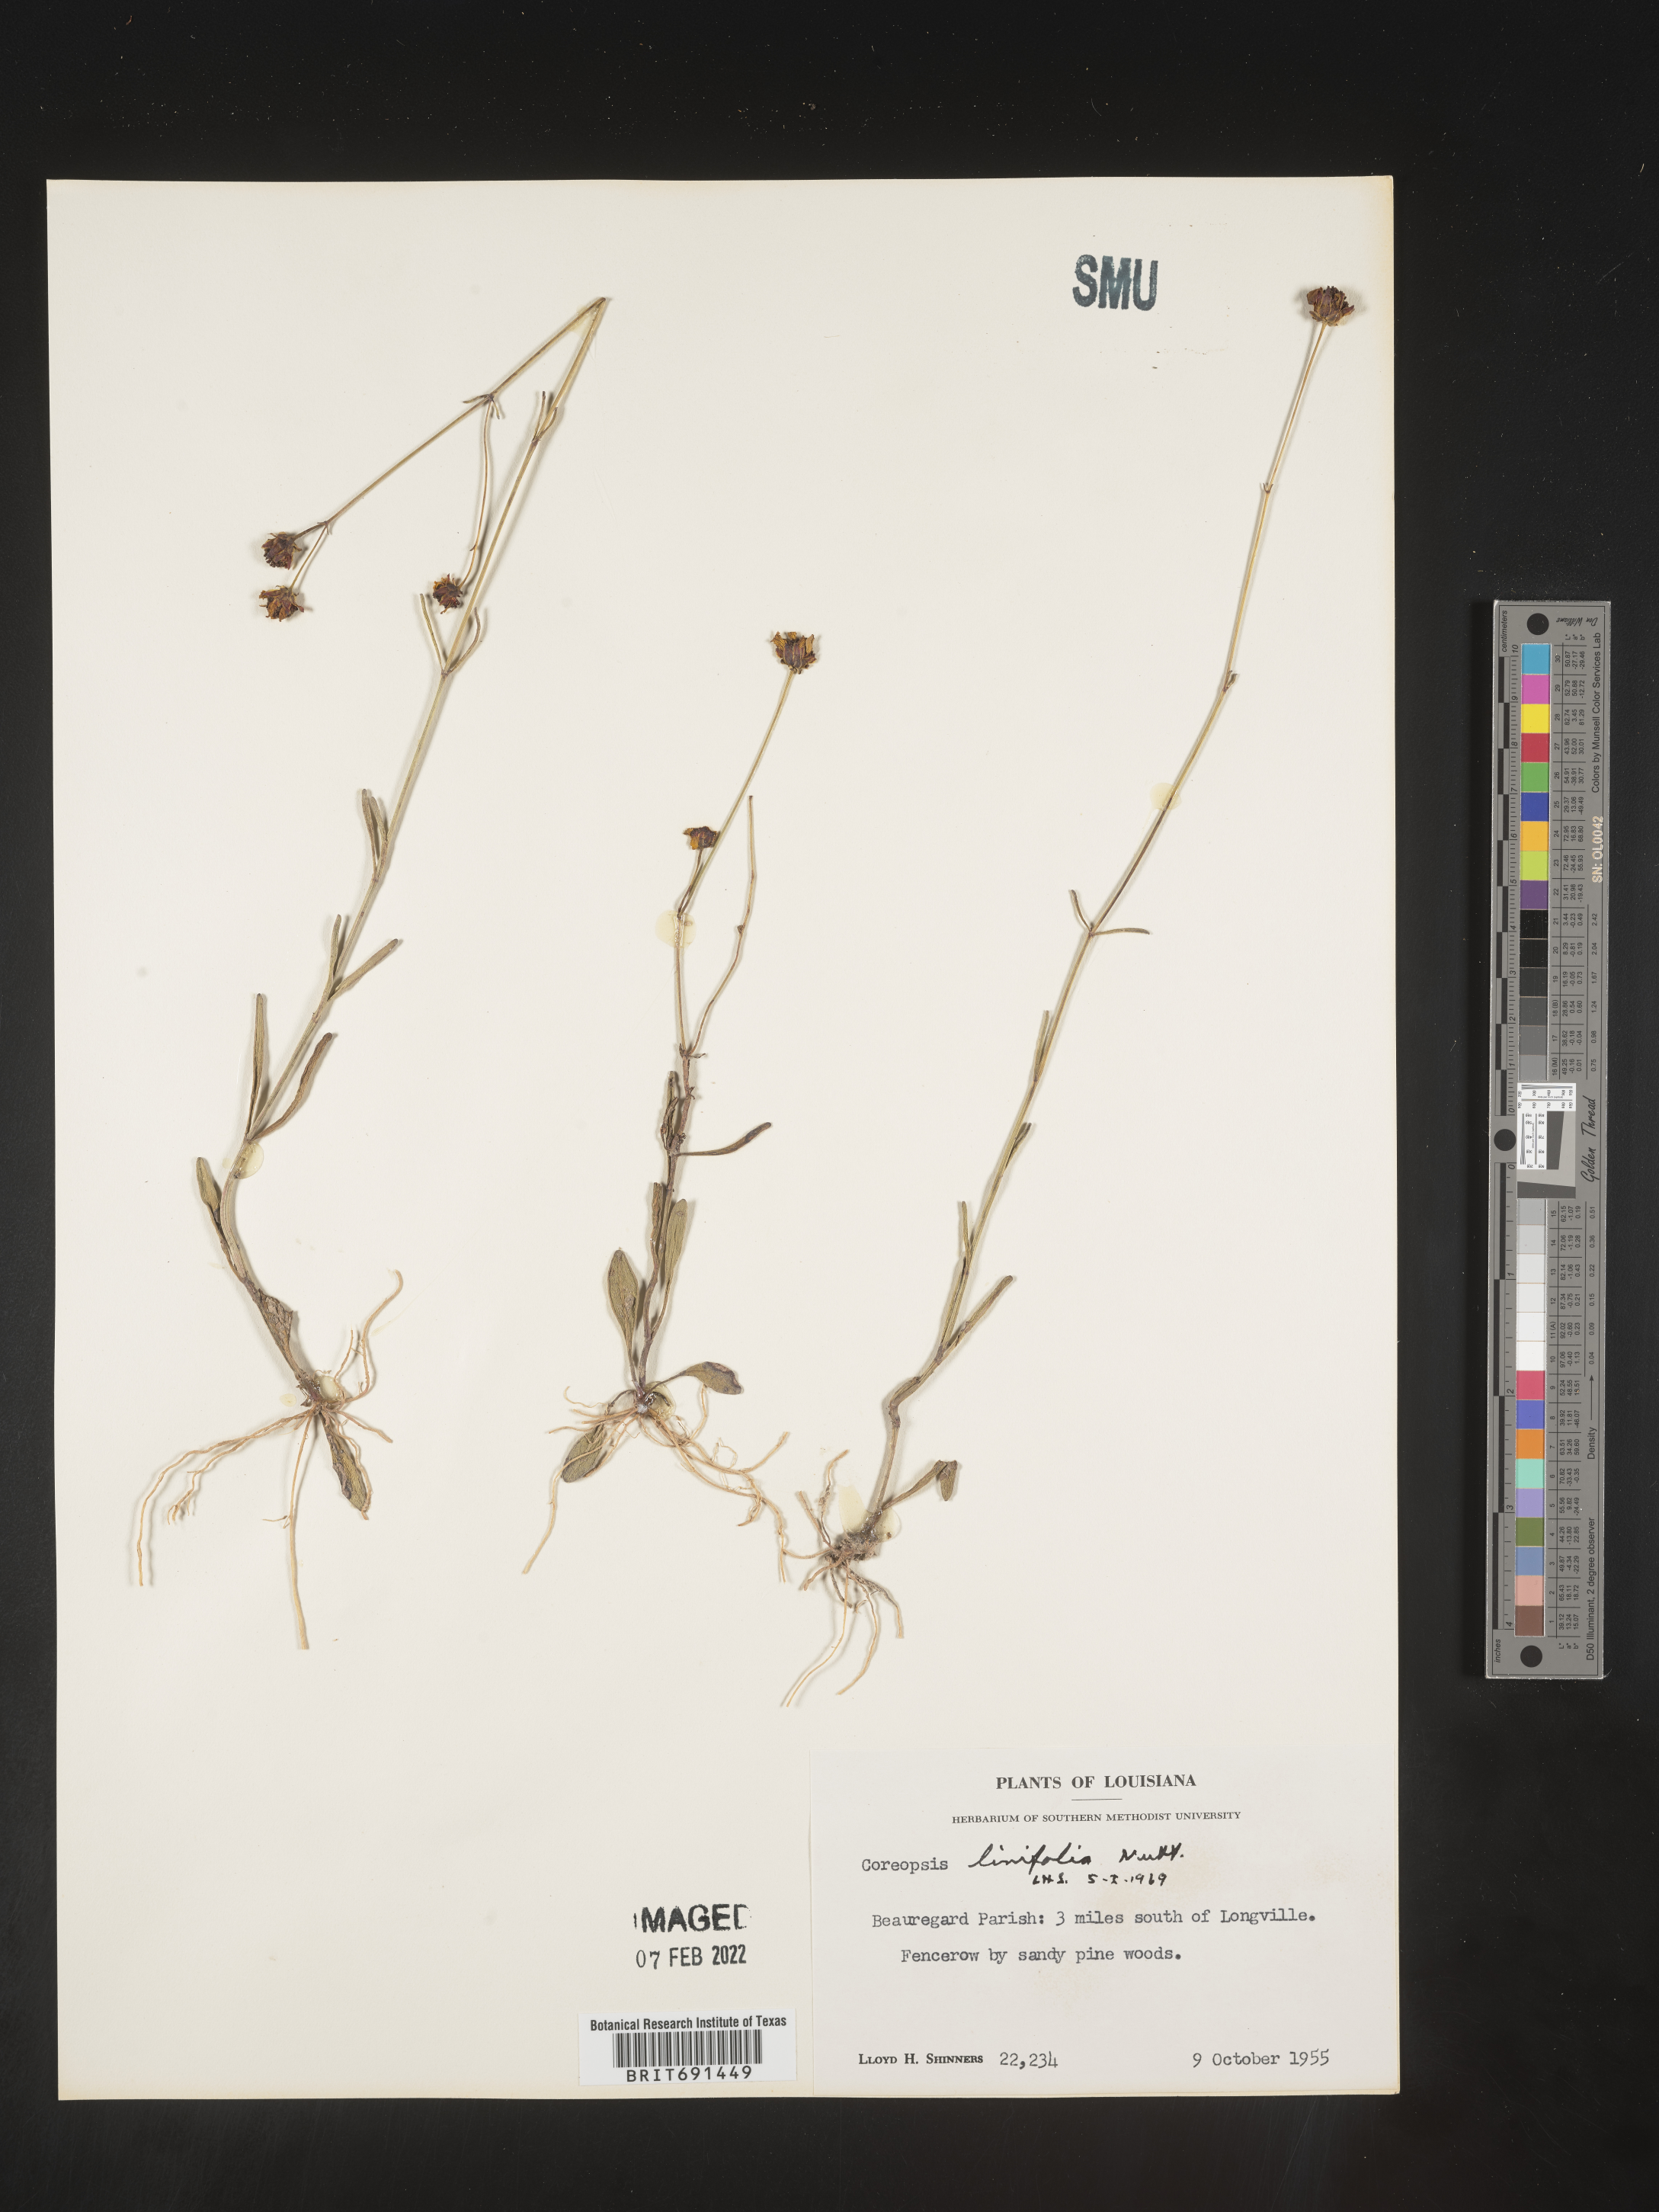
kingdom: Plantae
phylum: Tracheophyta
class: Magnoliopsida
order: Asterales
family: Asteraceae
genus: Coreopsis
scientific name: Coreopsis gladiata
